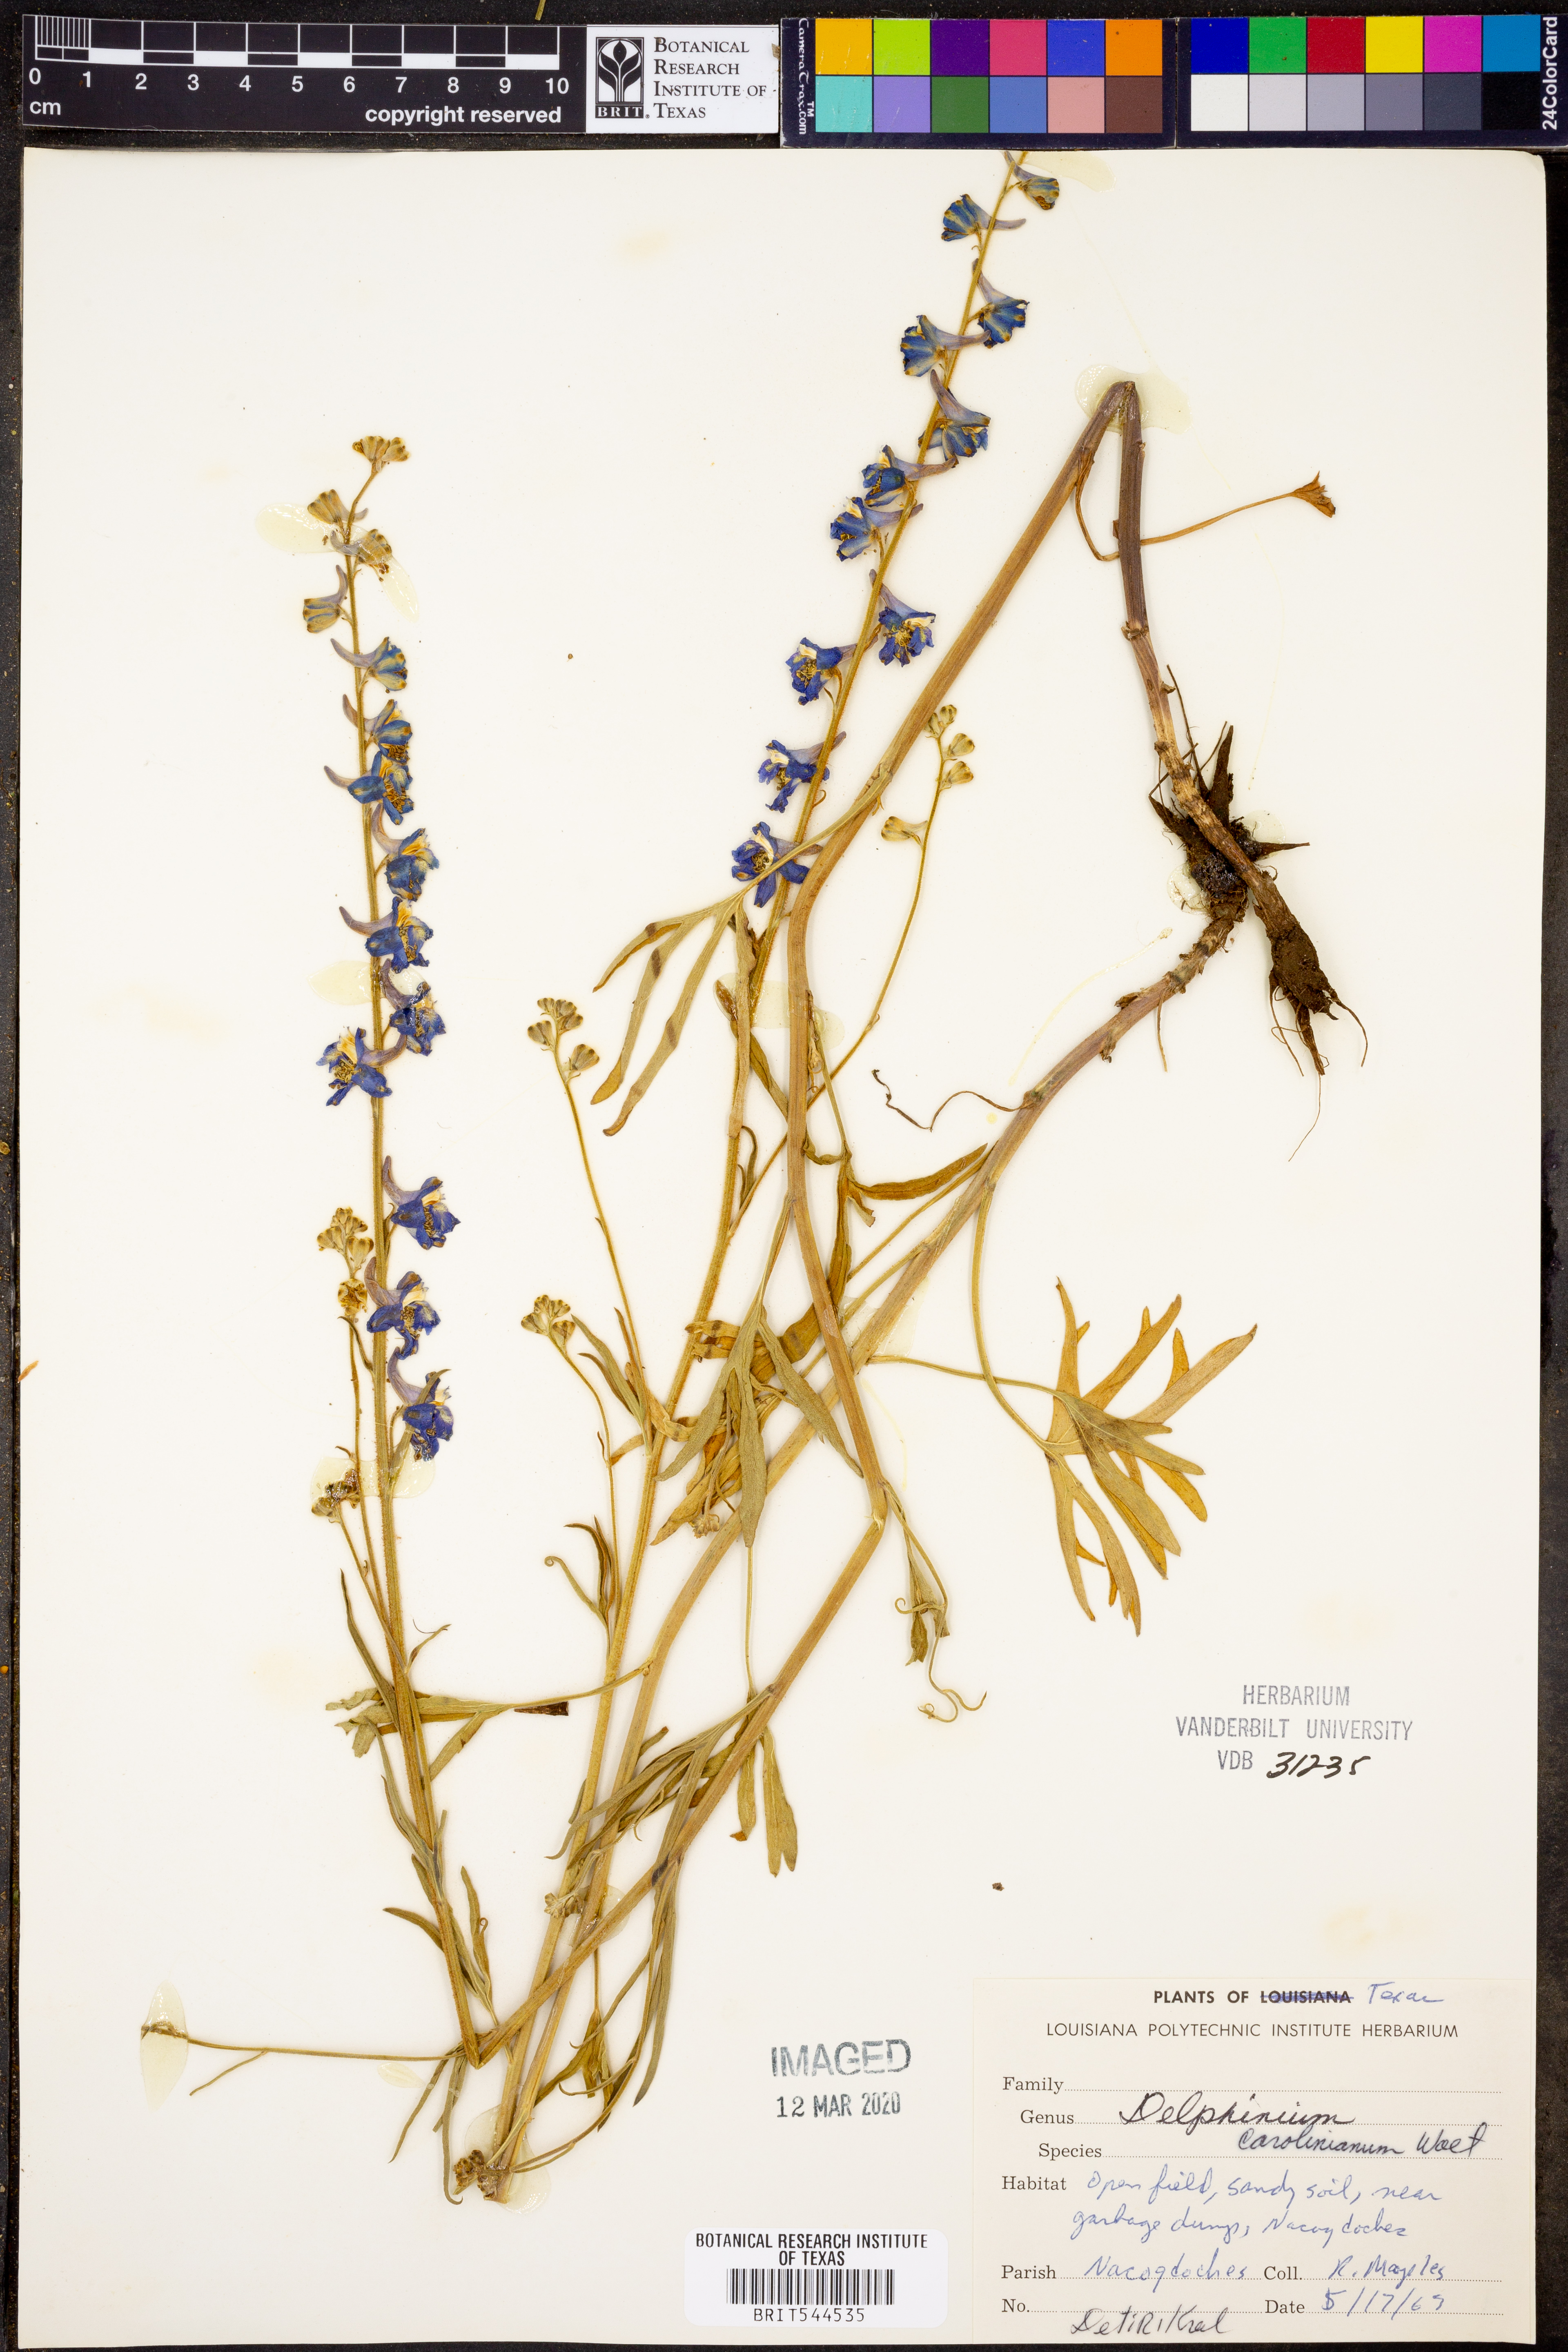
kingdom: Plantae
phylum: Tracheophyta
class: Magnoliopsida
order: Ranunculales
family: Ranunculaceae
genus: Delphinium
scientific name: Delphinium carolinianum
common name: Carolina larkspur
